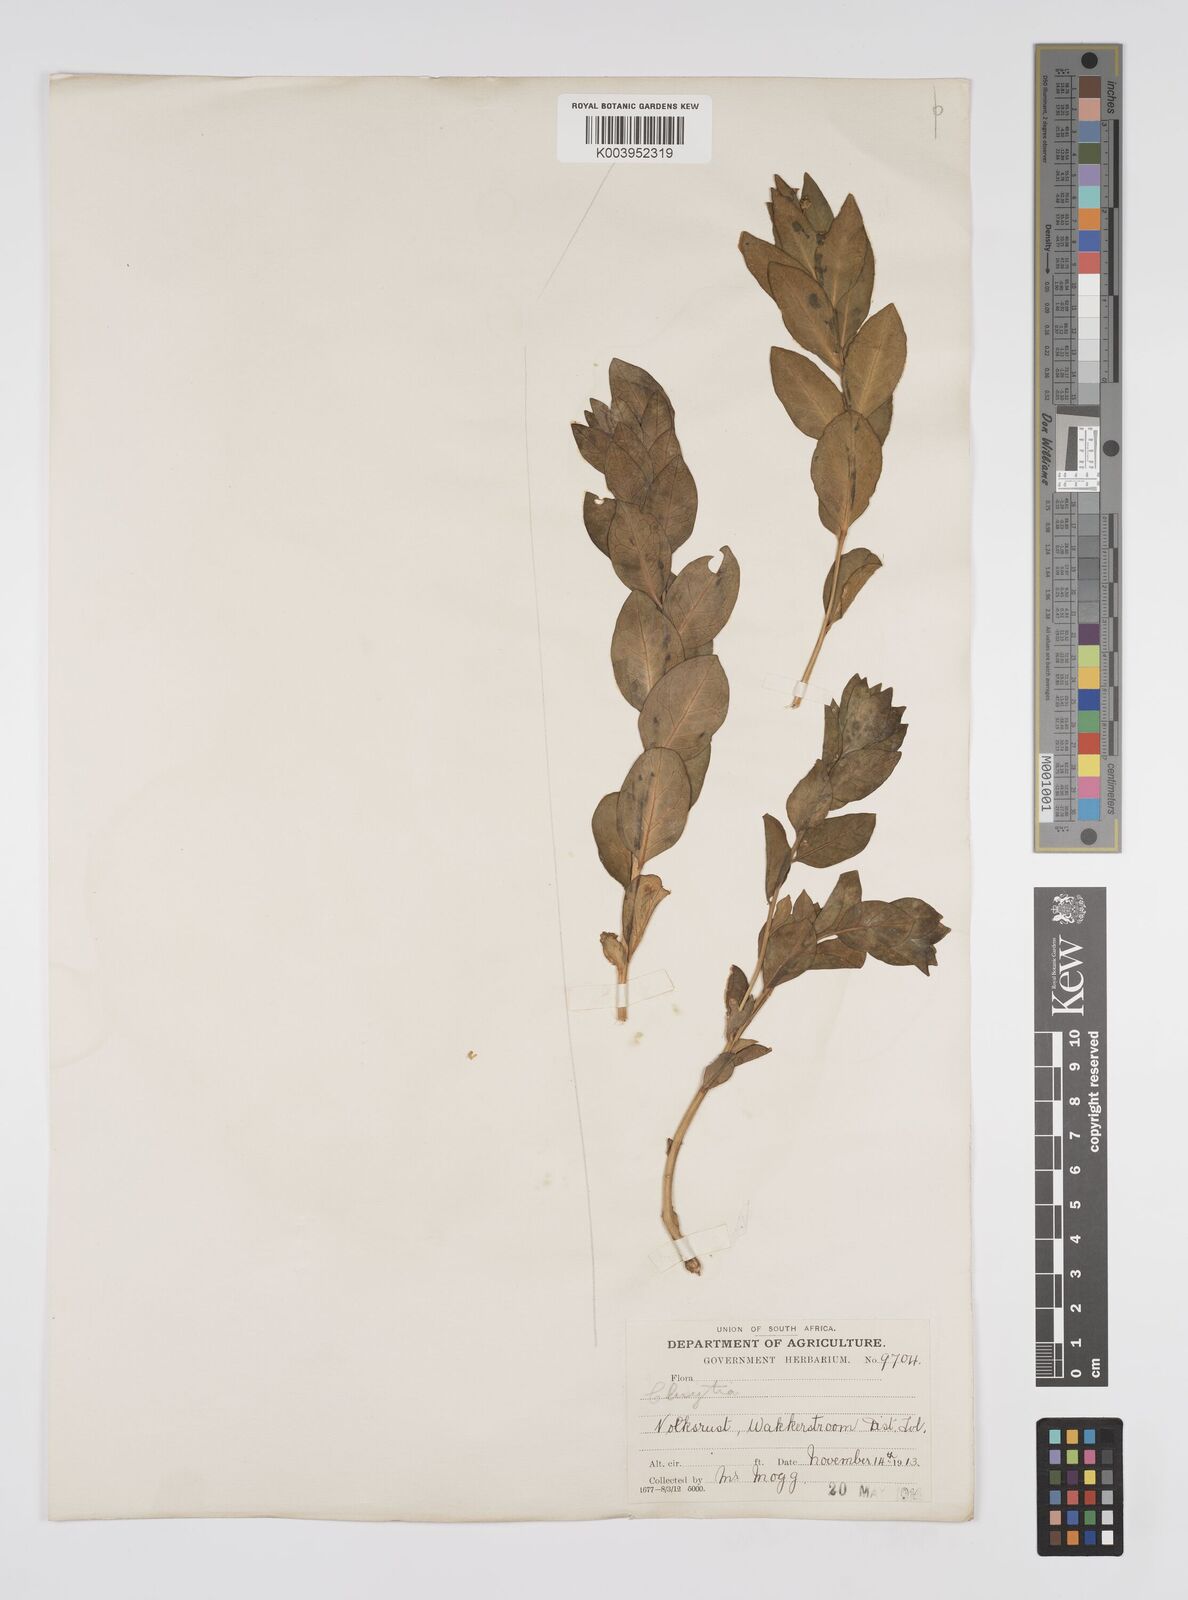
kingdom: Plantae
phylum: Tracheophyta
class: Magnoliopsida
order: Malpighiales
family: Peraceae
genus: Clutia
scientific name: Clutia
